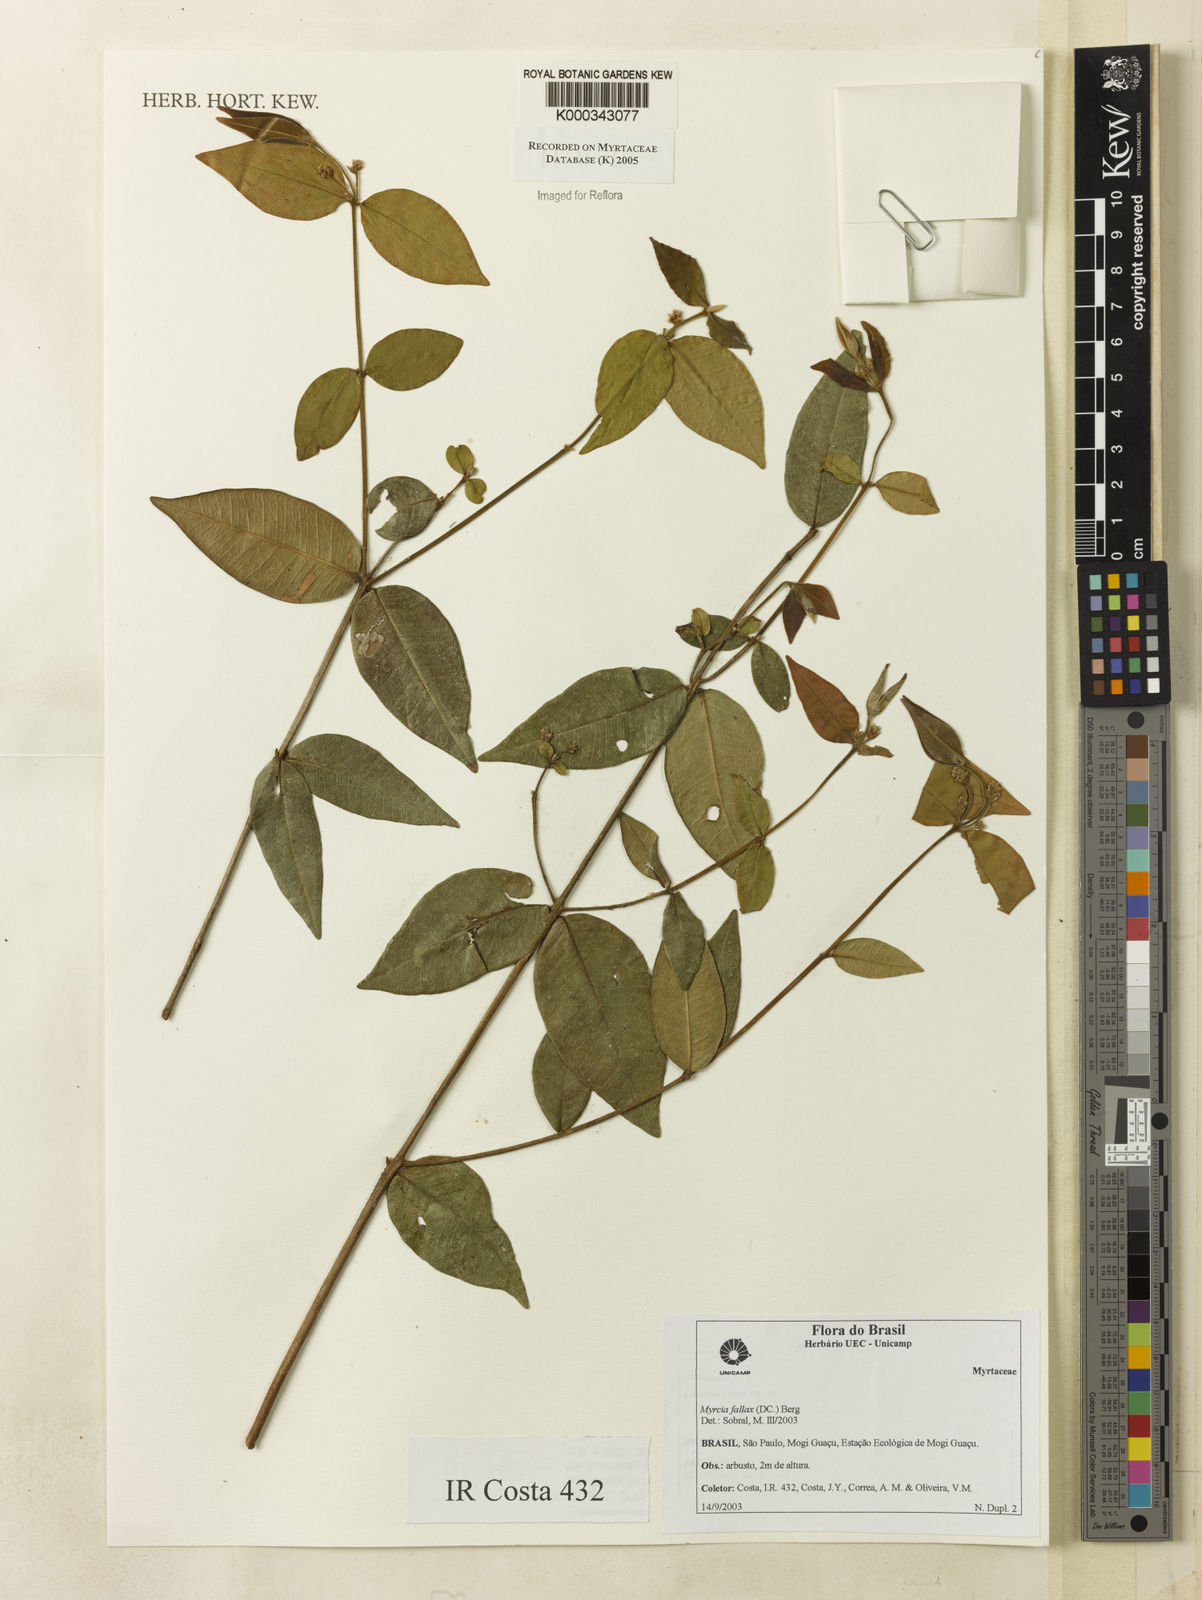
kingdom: Plantae
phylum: Tracheophyta
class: Magnoliopsida
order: Myrtales
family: Myrtaceae
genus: Myrcia
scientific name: Myrcia splendens
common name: Surinam cherry
